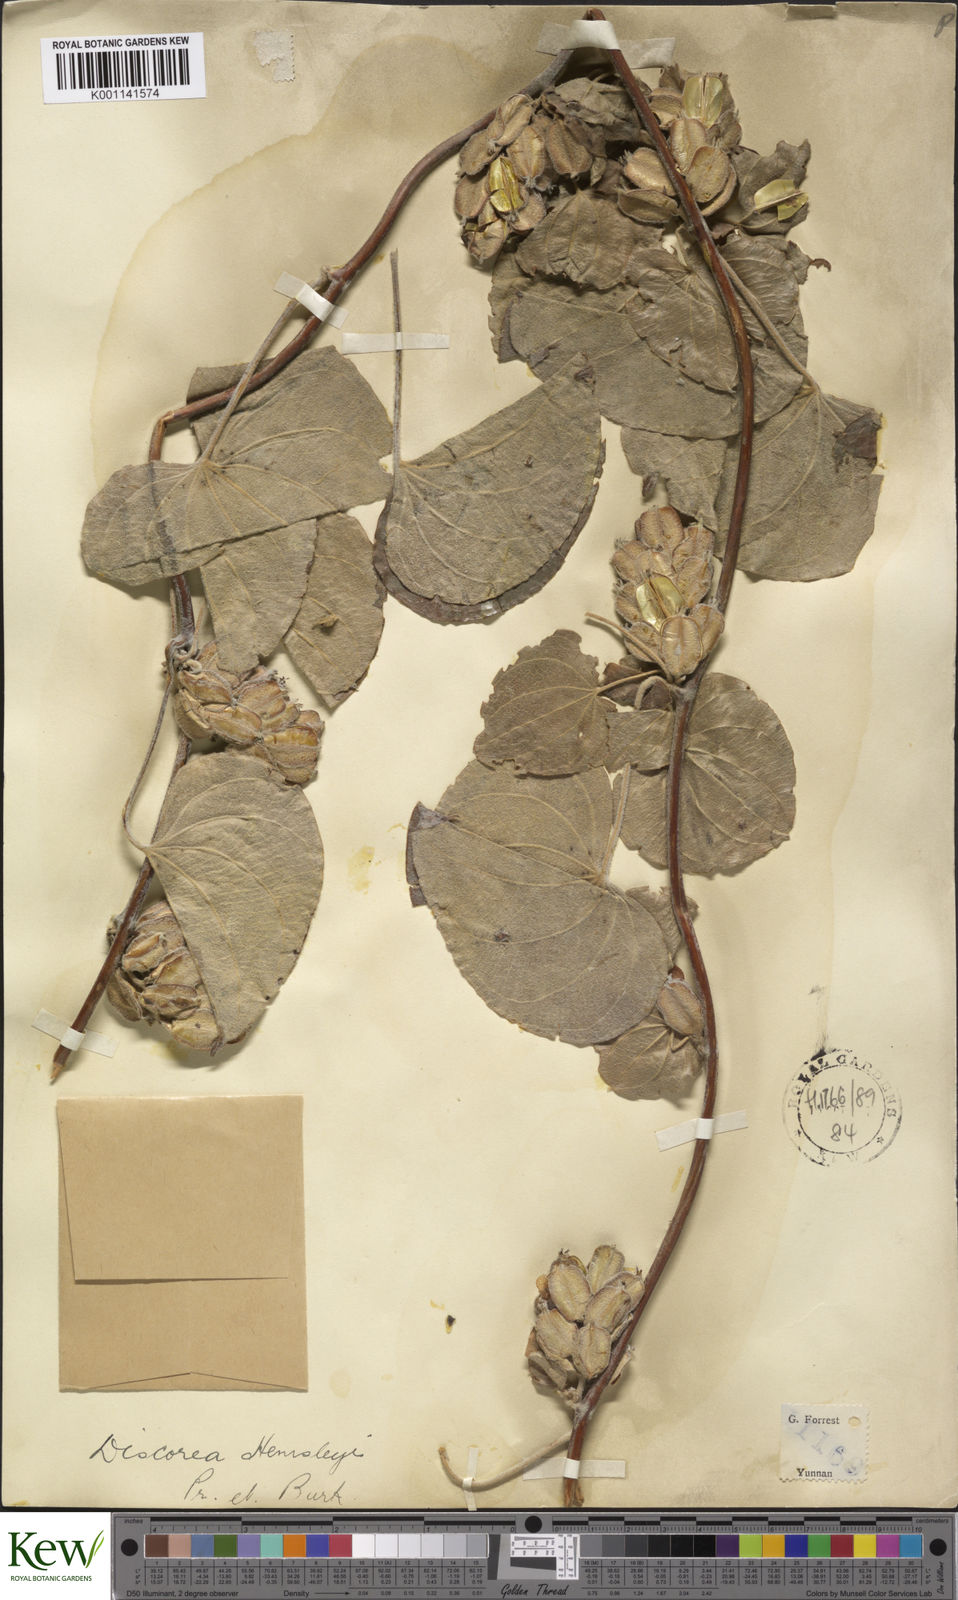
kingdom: Plantae
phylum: Tracheophyta
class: Liliopsida
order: Dioscoreales
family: Dioscoreaceae
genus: Dioscorea
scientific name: Dioscorea hemsleyi
